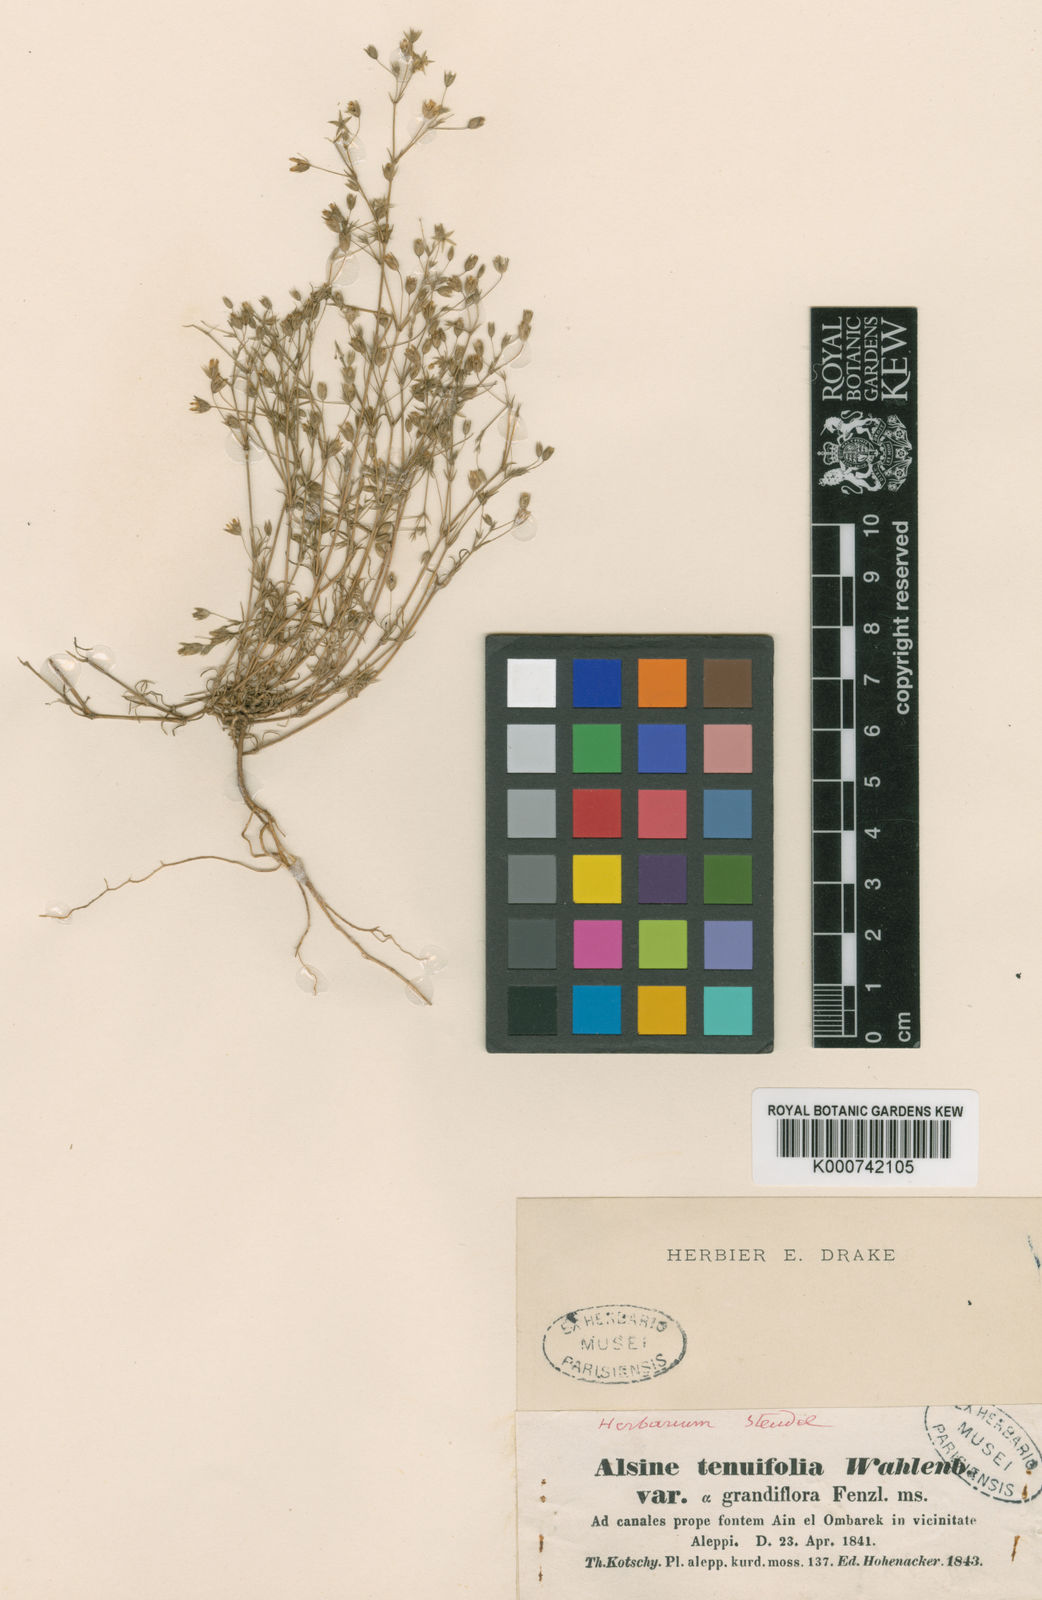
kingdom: Plantae
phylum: Tracheophyta
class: Magnoliopsida
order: Caryophyllales
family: Caryophyllaceae
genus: Sabulina
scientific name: Sabulina mesogitana
